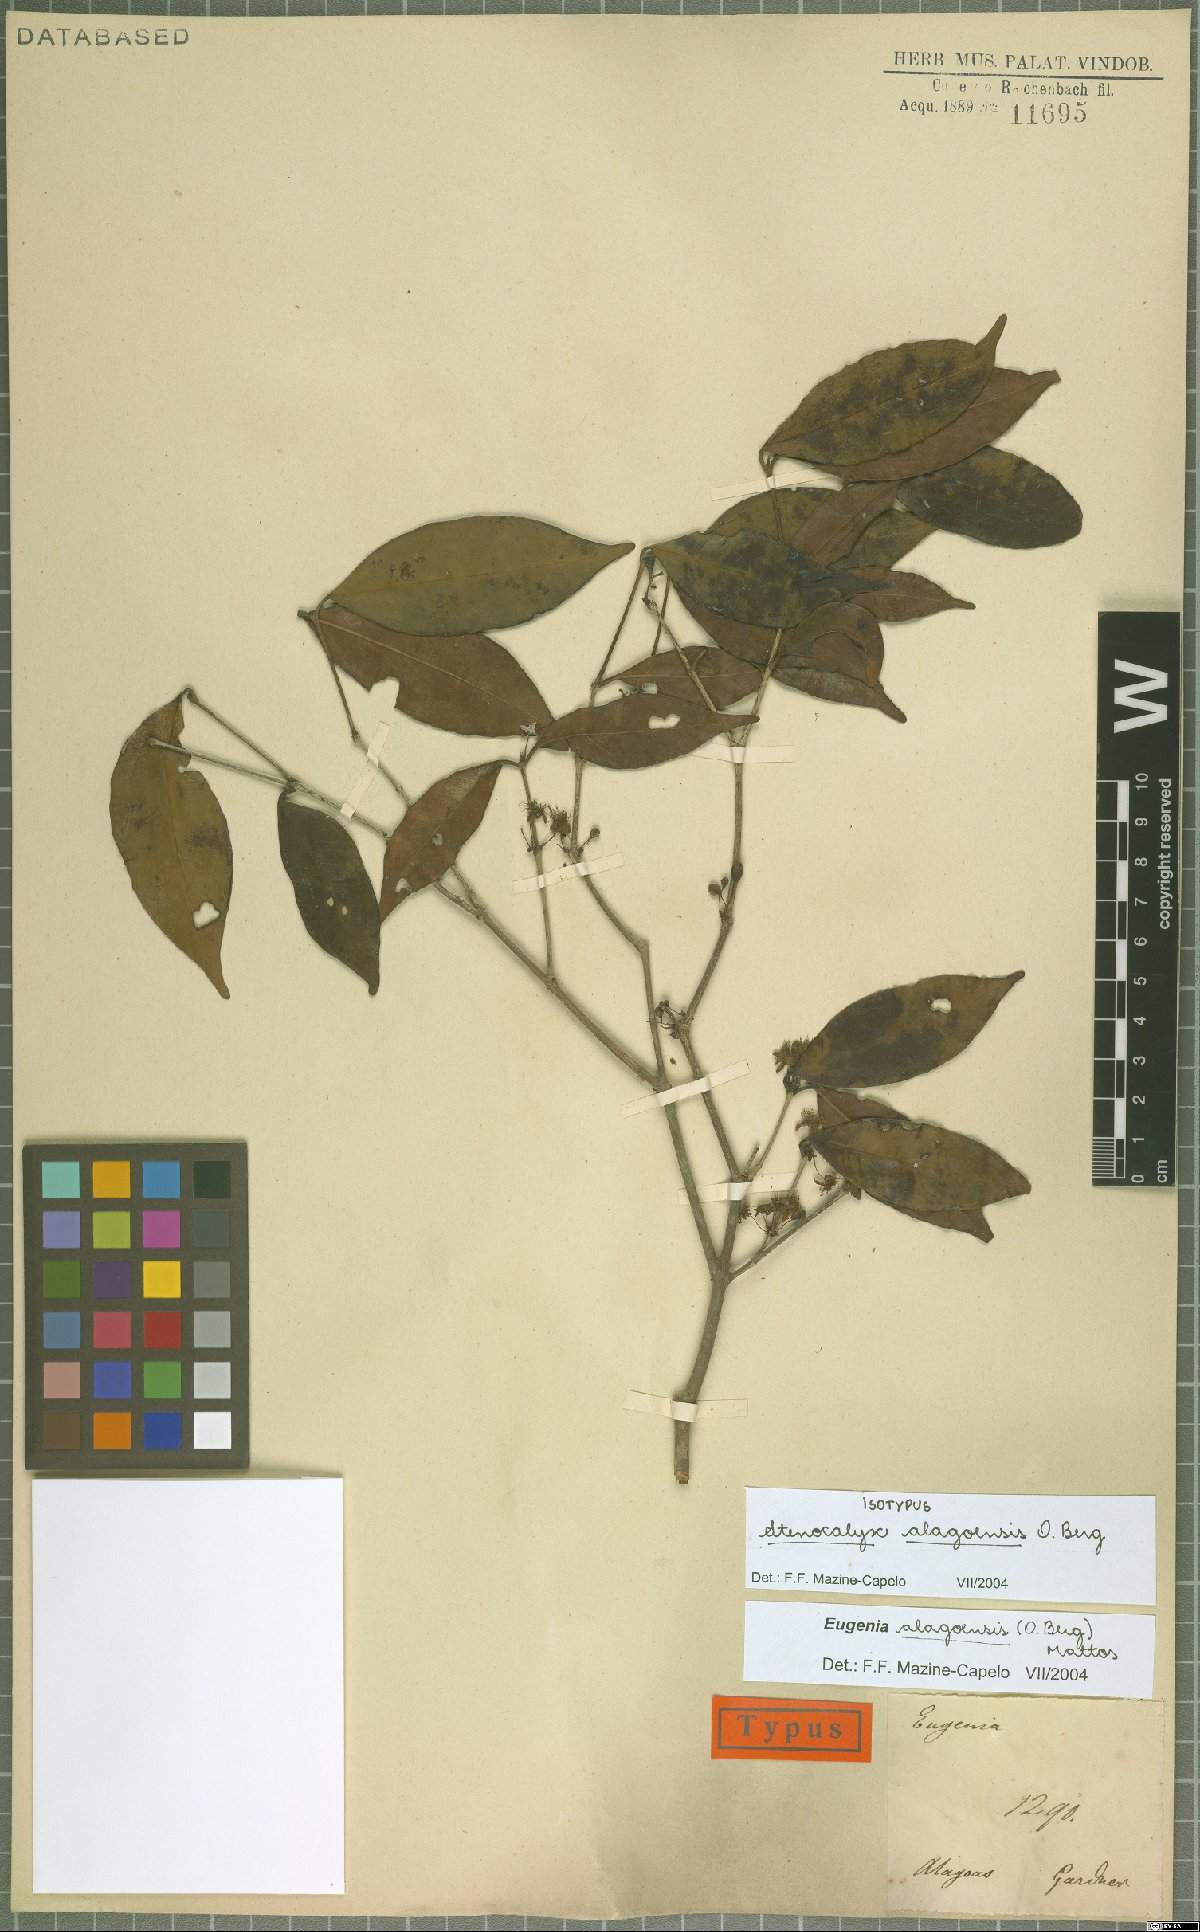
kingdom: Plantae
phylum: Tracheophyta
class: Magnoliopsida
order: Myrtales
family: Myrtaceae
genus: Eugenia
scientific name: Eugenia alagoensis
